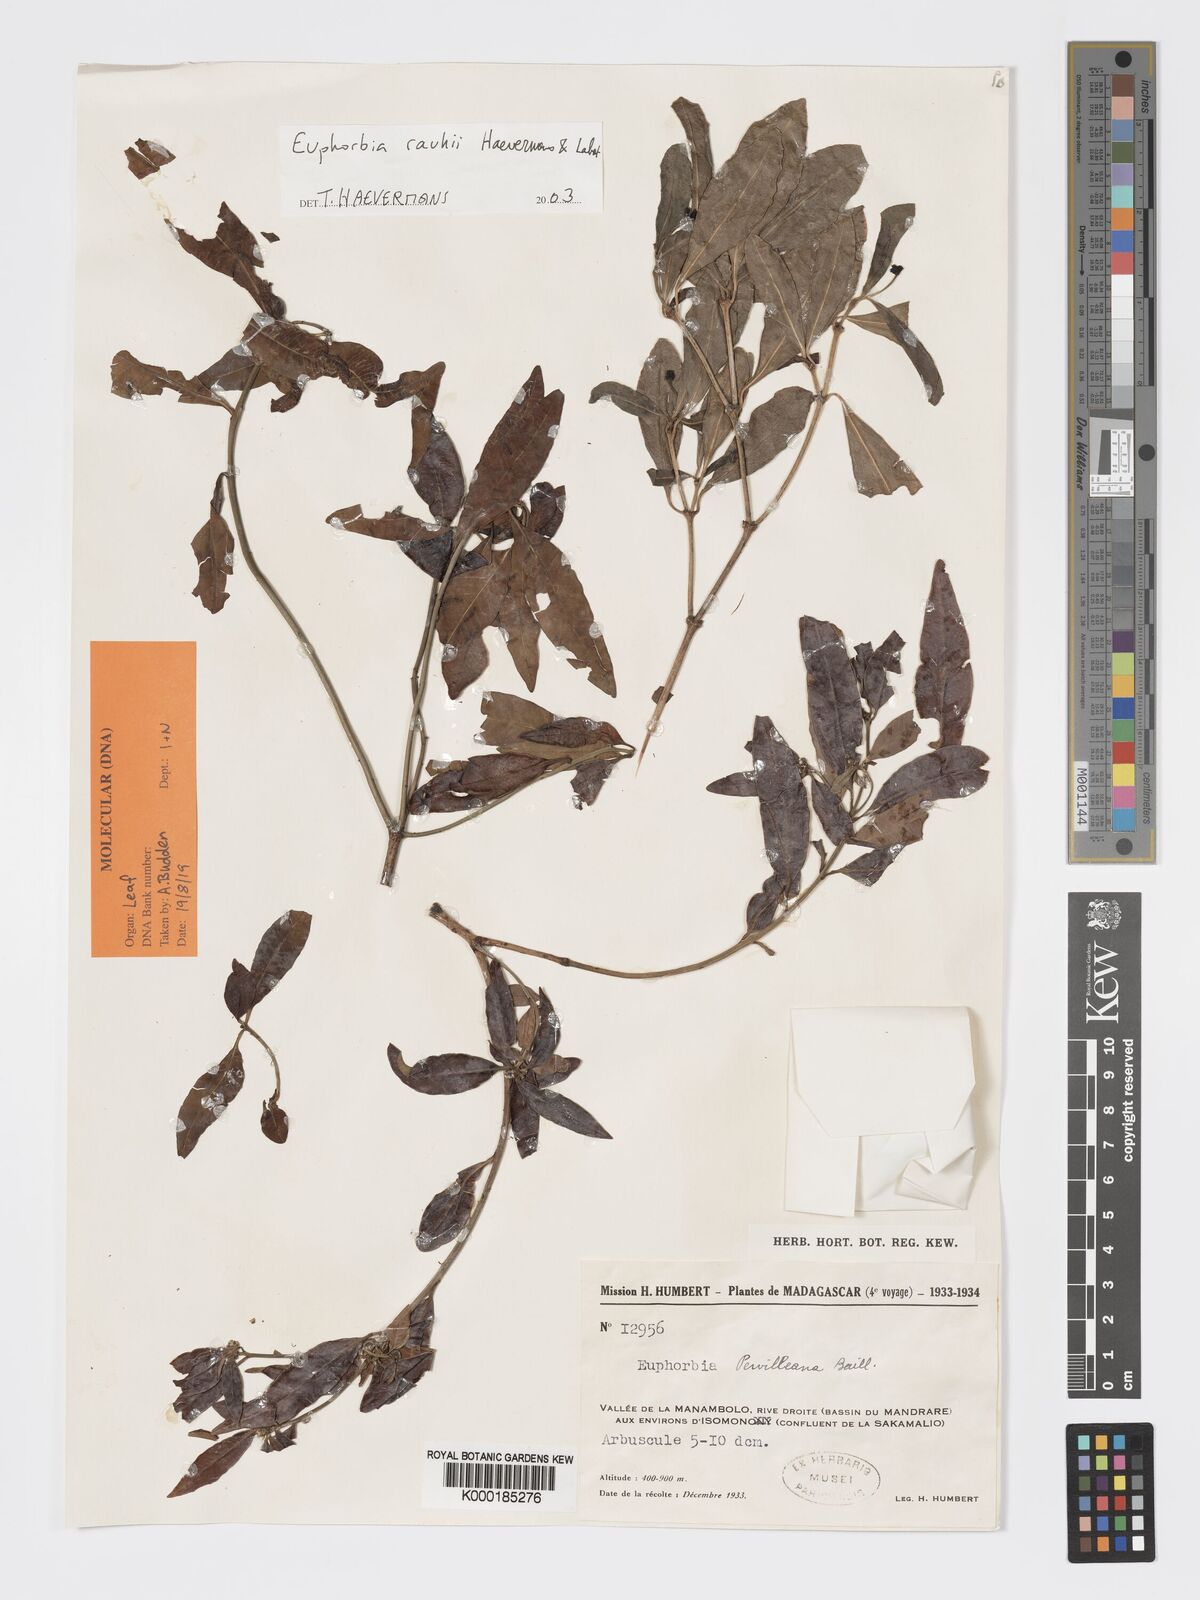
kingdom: Plantae
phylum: Tracheophyta
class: Magnoliopsida
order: Malpighiales
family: Euphorbiaceae
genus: Euphorbia
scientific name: Euphorbia rauhii
